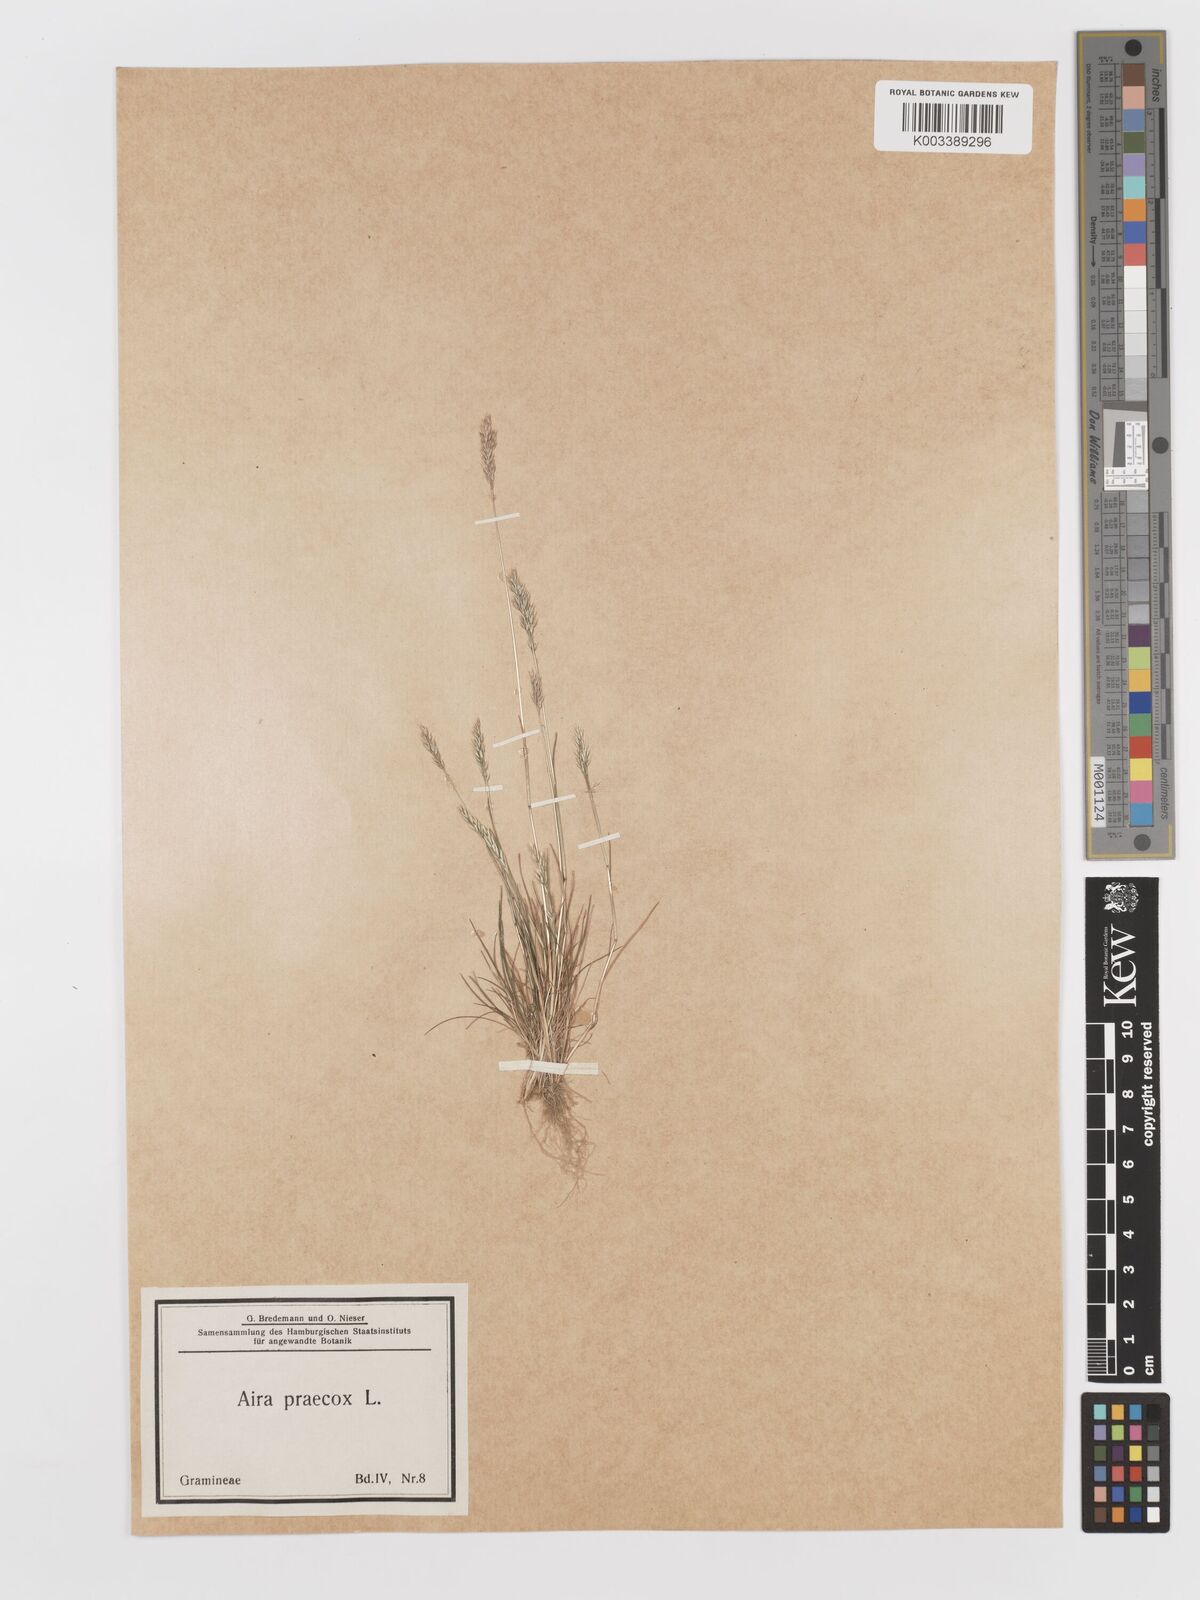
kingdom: Plantae
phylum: Tracheophyta
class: Liliopsida
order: Poales
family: Poaceae
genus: Aira
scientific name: Aira praecox
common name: Early hair-grass
